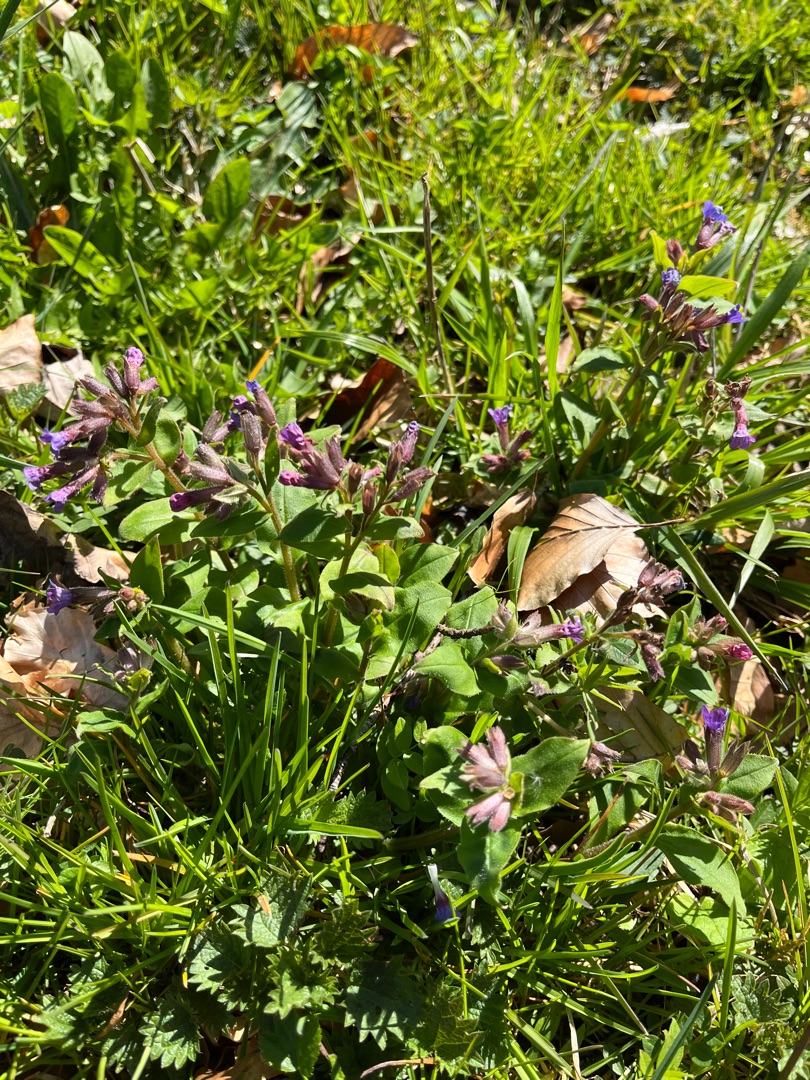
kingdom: Plantae
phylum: Tracheophyta
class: Magnoliopsida
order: Boraginales
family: Boraginaceae
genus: Pulmonaria
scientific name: Pulmonaria obscura
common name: Almindelig lungeurt
